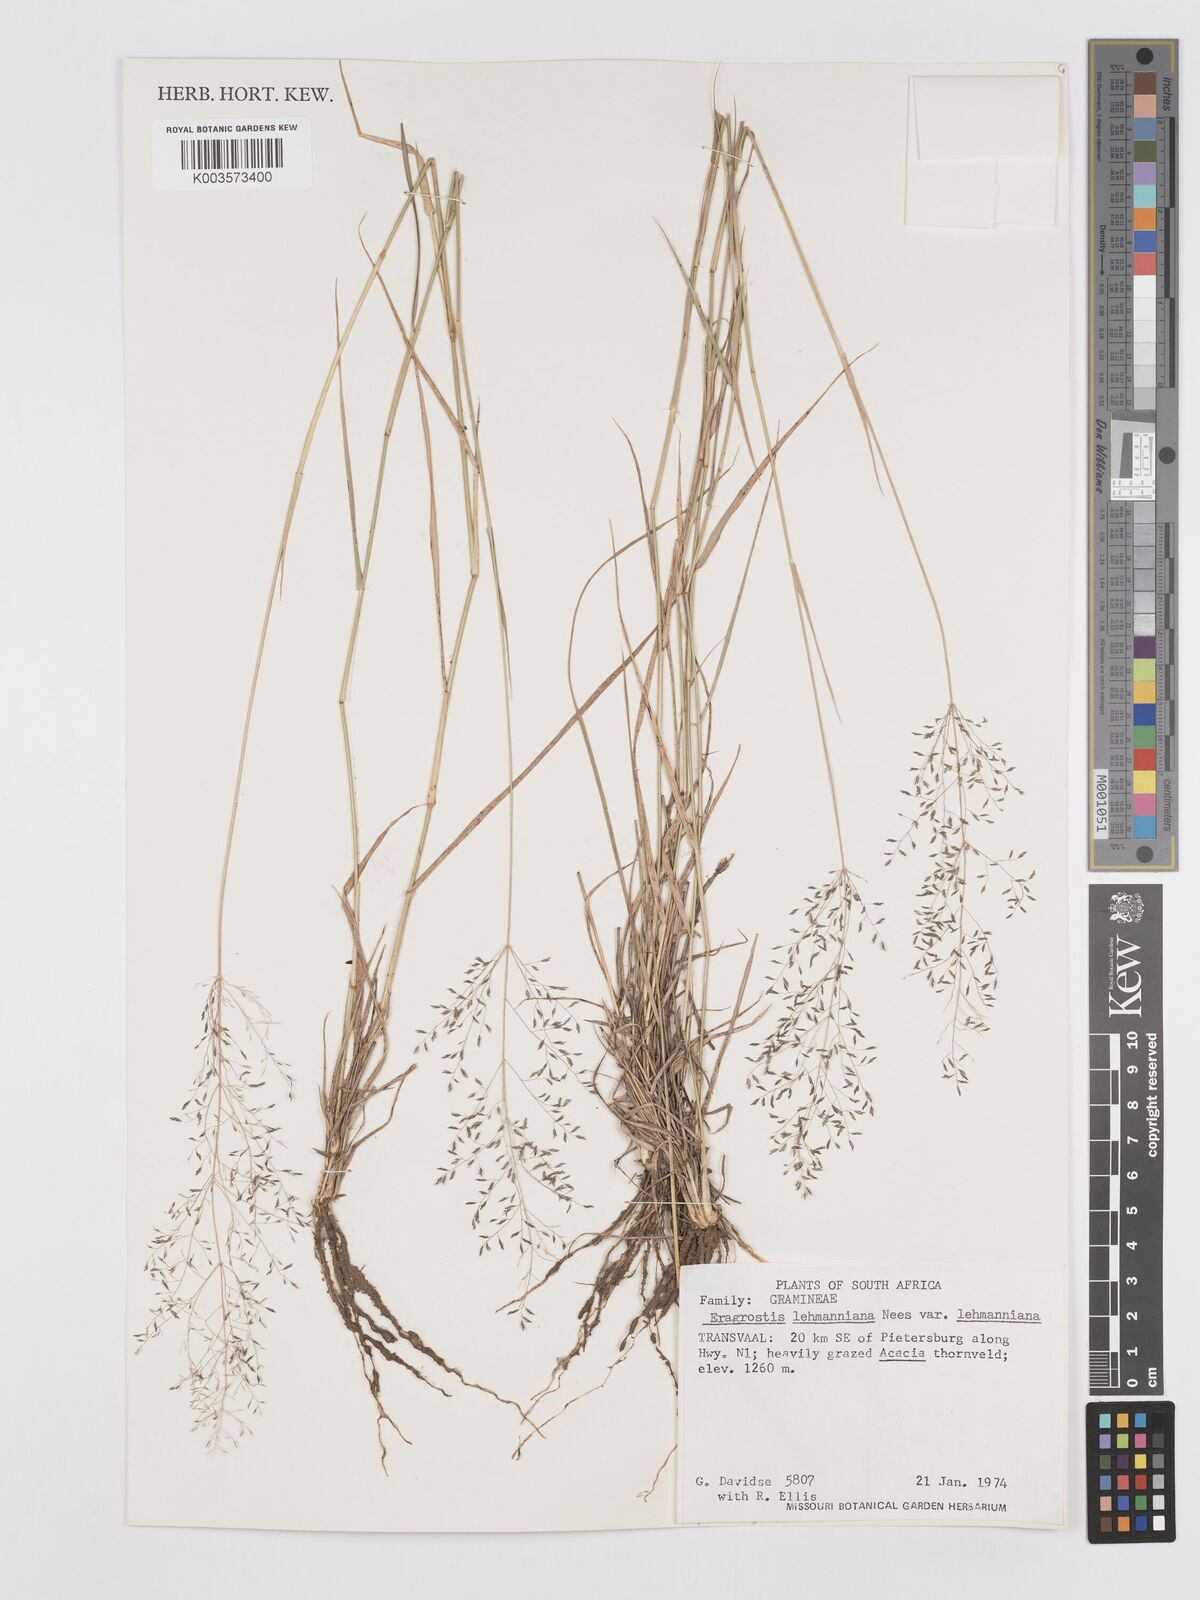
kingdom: Plantae
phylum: Tracheophyta
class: Liliopsida
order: Poales
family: Poaceae
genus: Eragrostis
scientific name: Eragrostis lehmanniana
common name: Lehmann lovegrass
